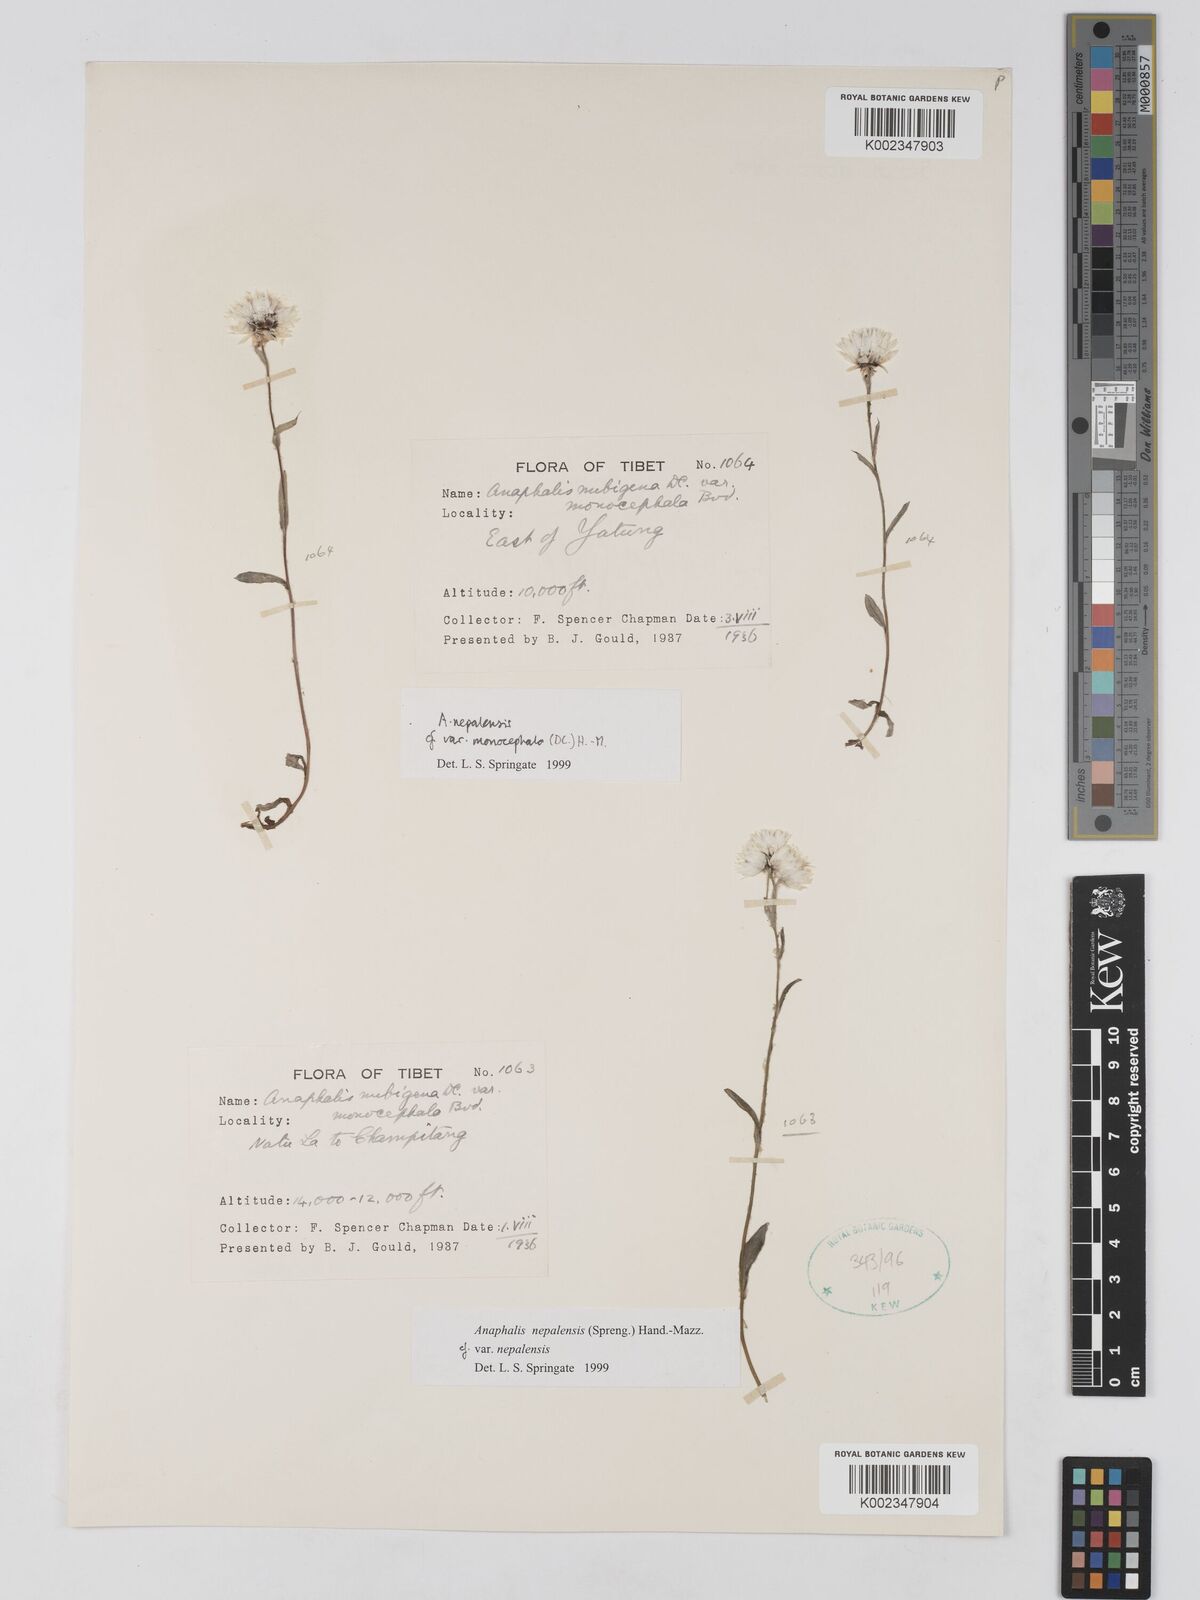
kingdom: Plantae
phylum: Tracheophyta
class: Magnoliopsida
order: Asterales
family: Asteraceae
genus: Anaphalis
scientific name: Anaphalis nepalensis
